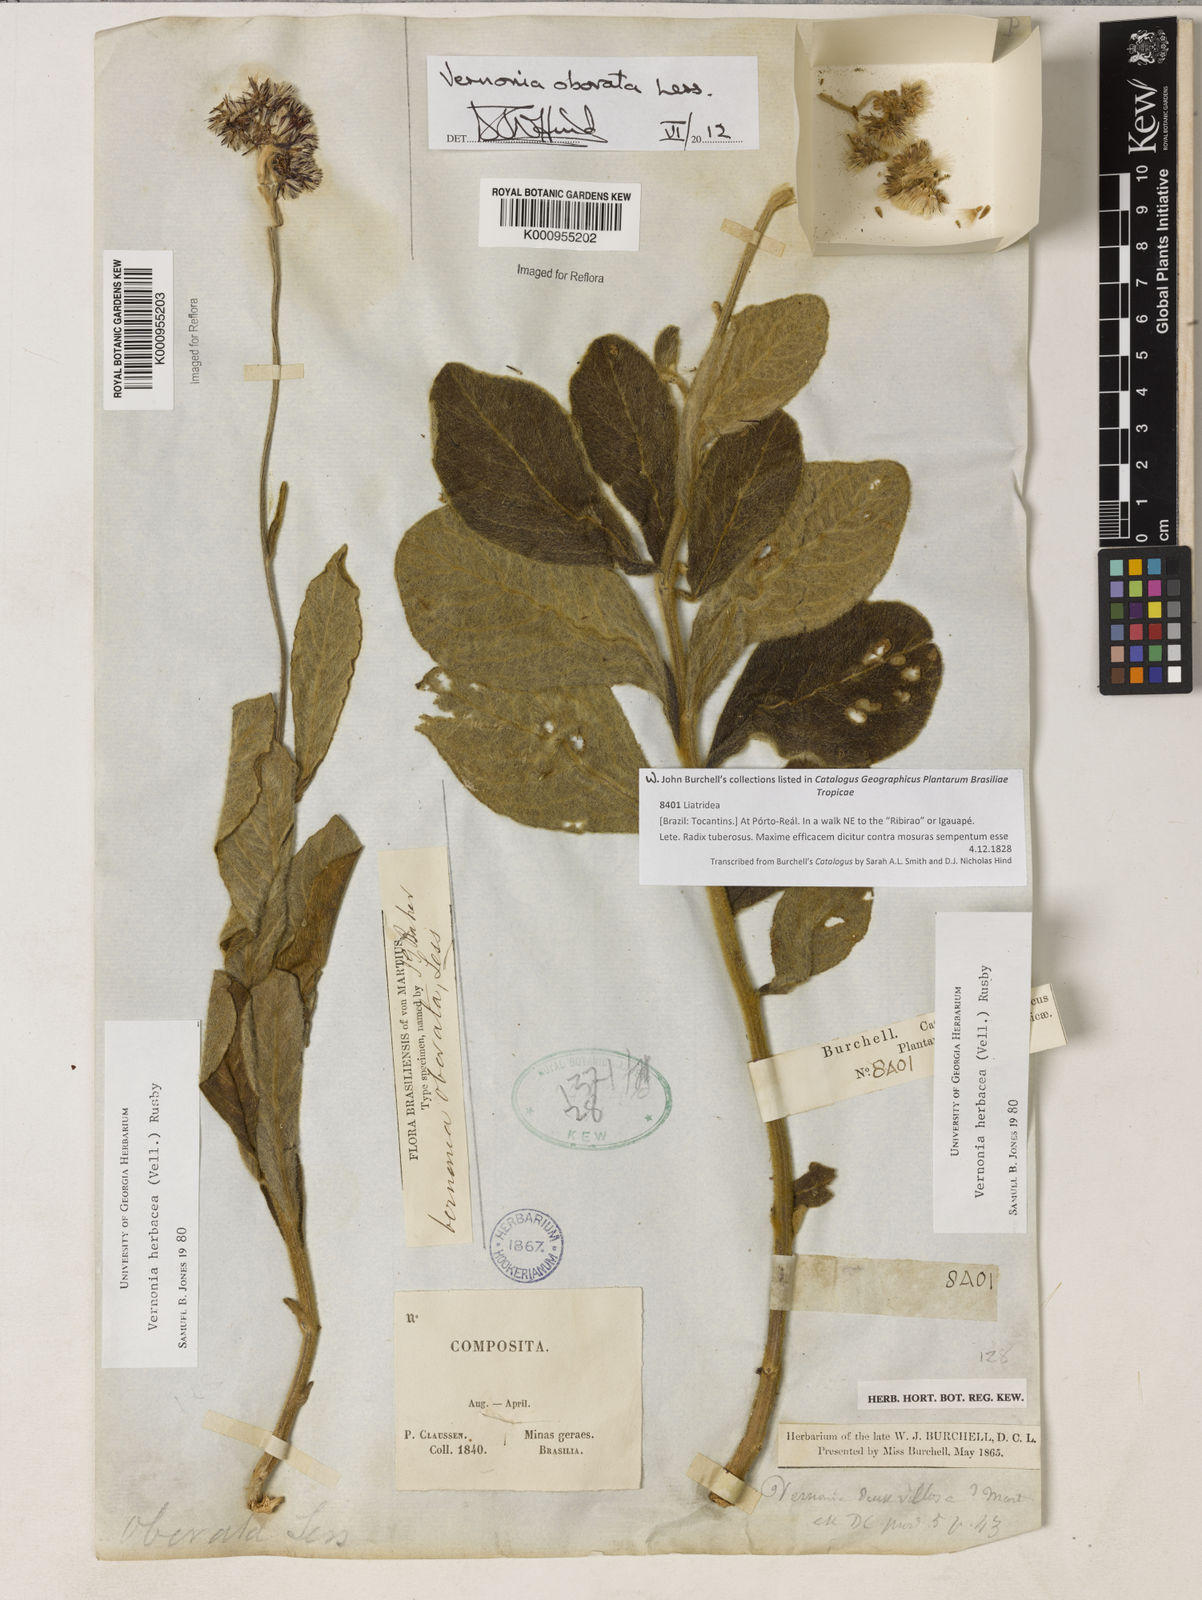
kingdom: Plantae
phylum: Tracheophyta
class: Magnoliopsida
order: Asterales
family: Asteraceae
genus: Chrysolaena
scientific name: Chrysolaena obovata
